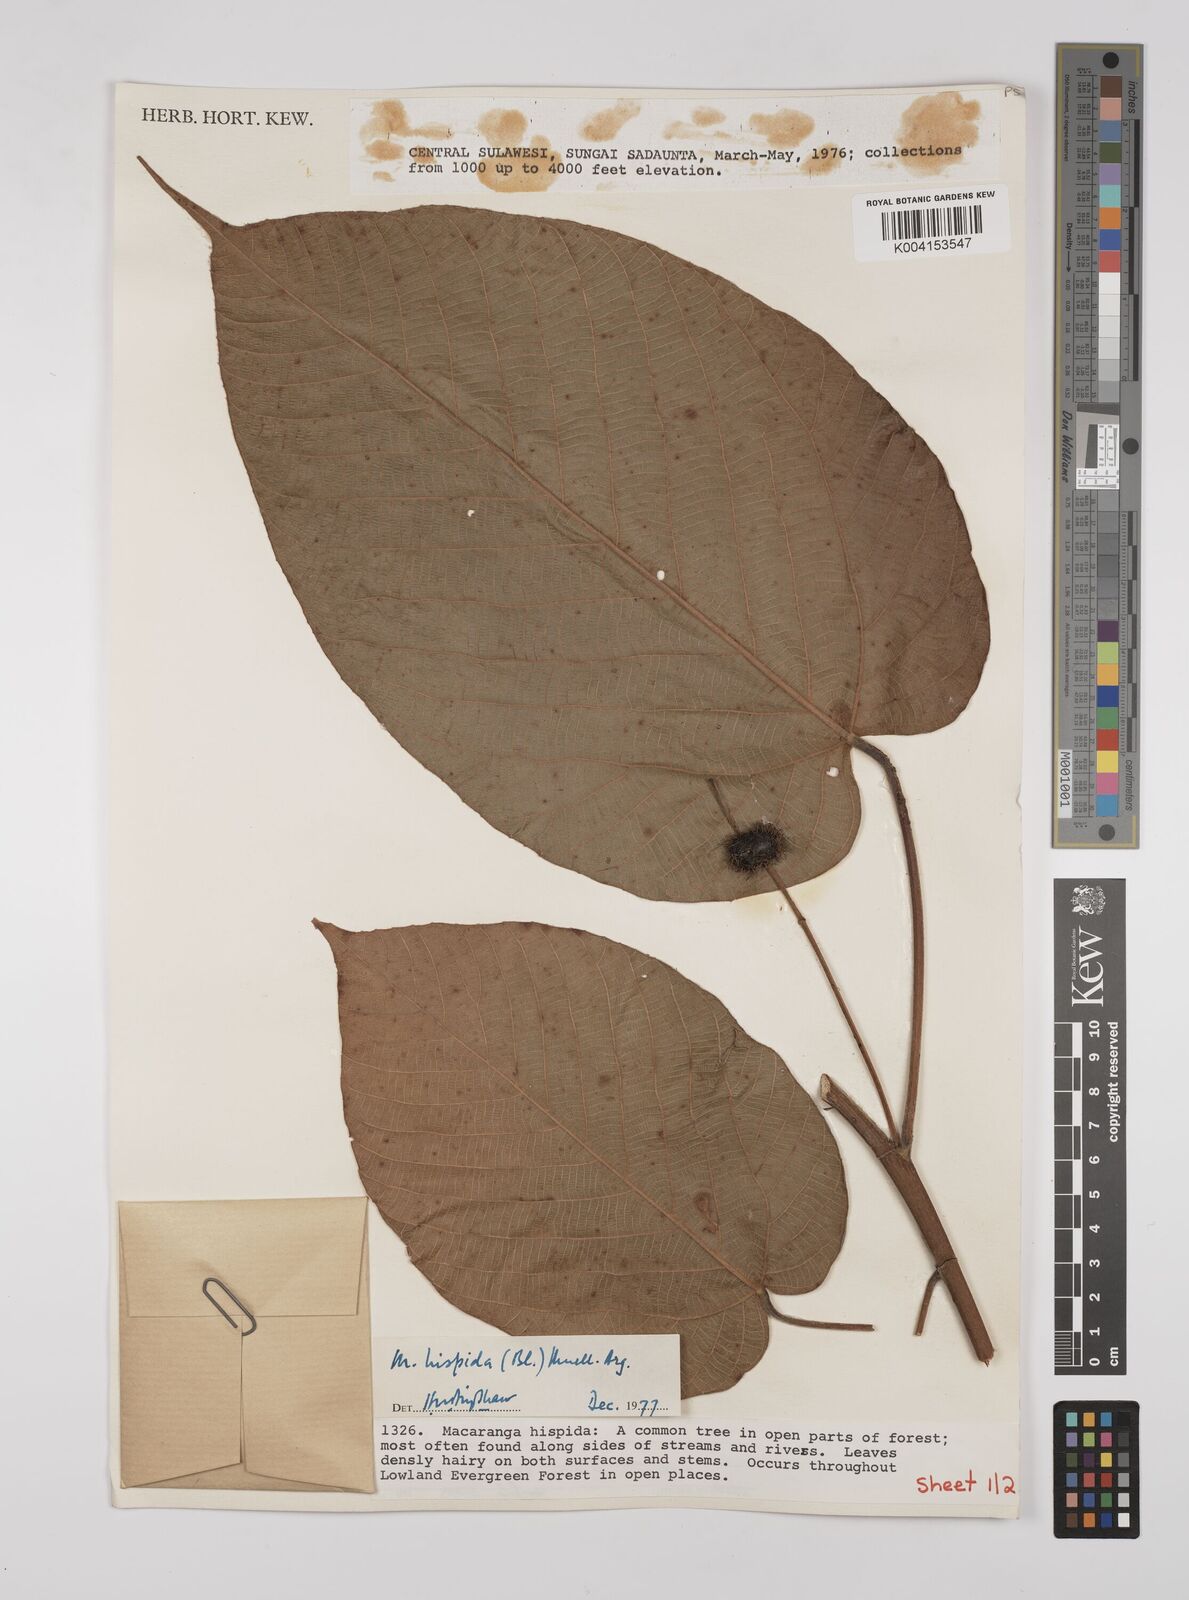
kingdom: Plantae
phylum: Tracheophyta
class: Magnoliopsida
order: Malpighiales
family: Euphorbiaceae
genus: Macaranga
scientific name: Macaranga hispida
